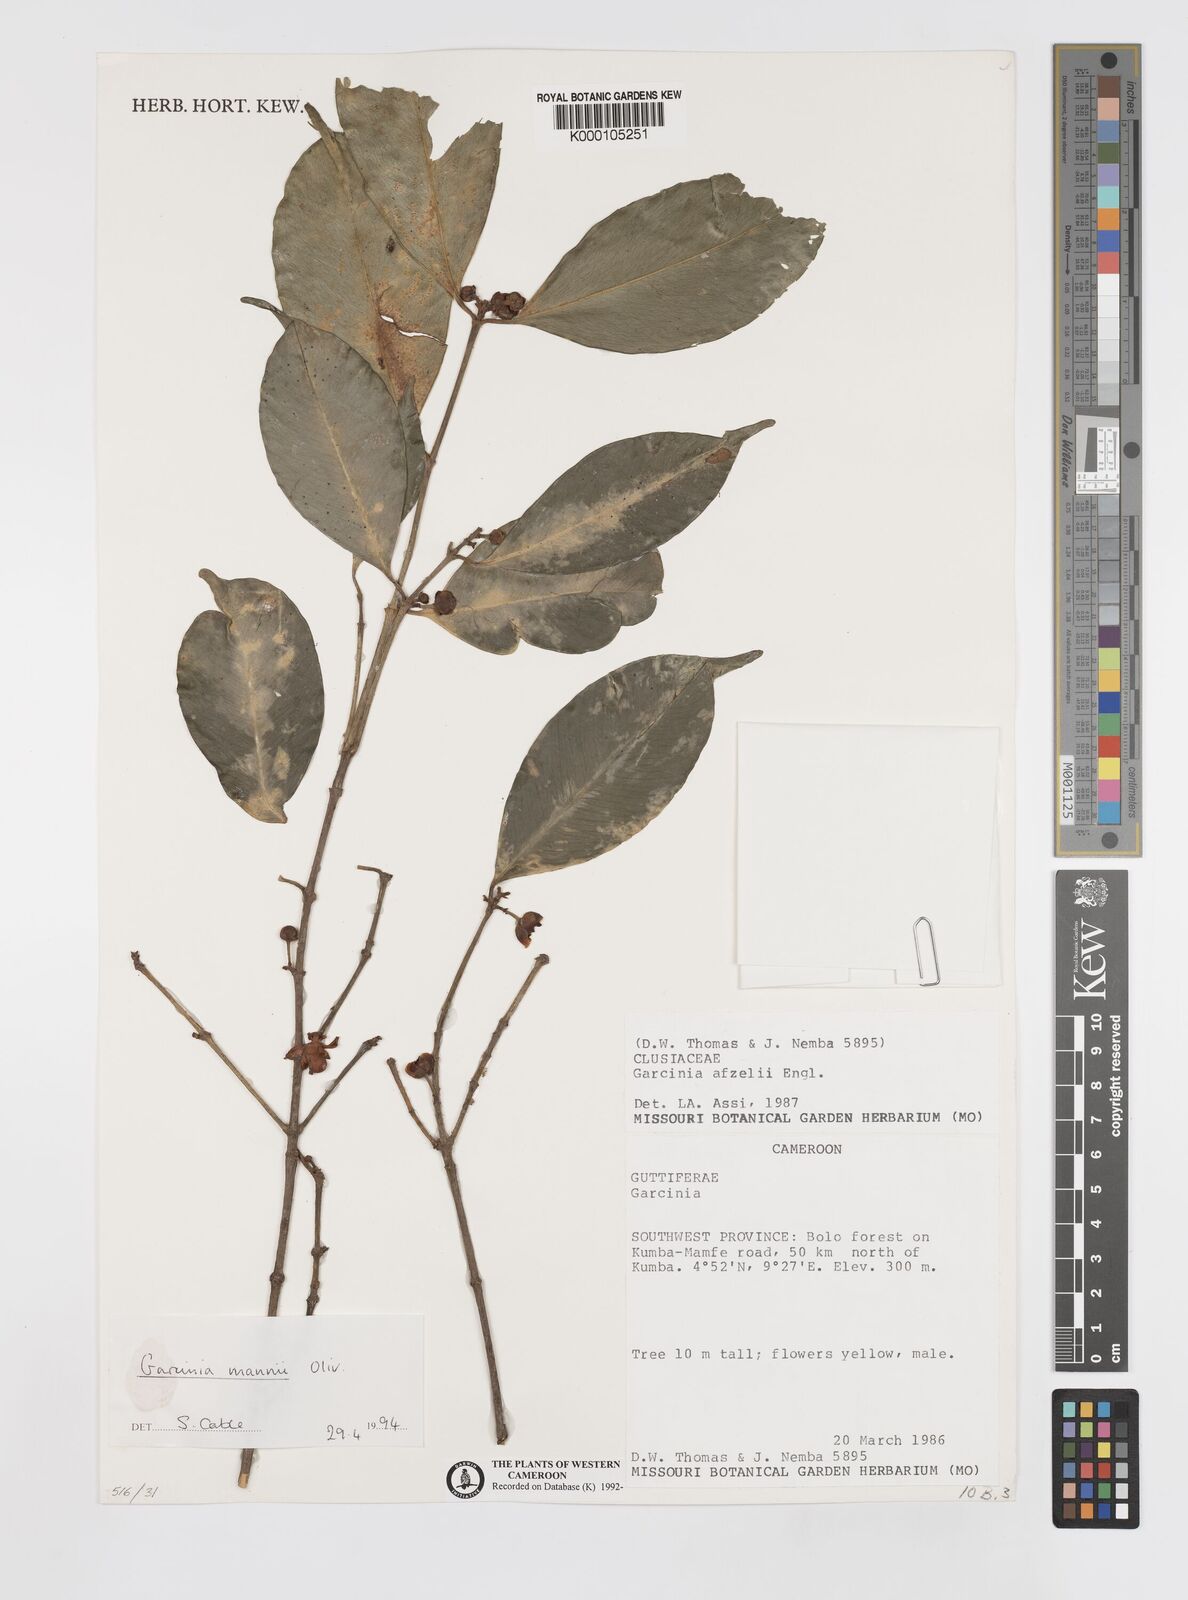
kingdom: Plantae
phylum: Tracheophyta
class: Magnoliopsida
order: Malpighiales
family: Clusiaceae
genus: Garcinia
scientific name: Garcinia mannii
